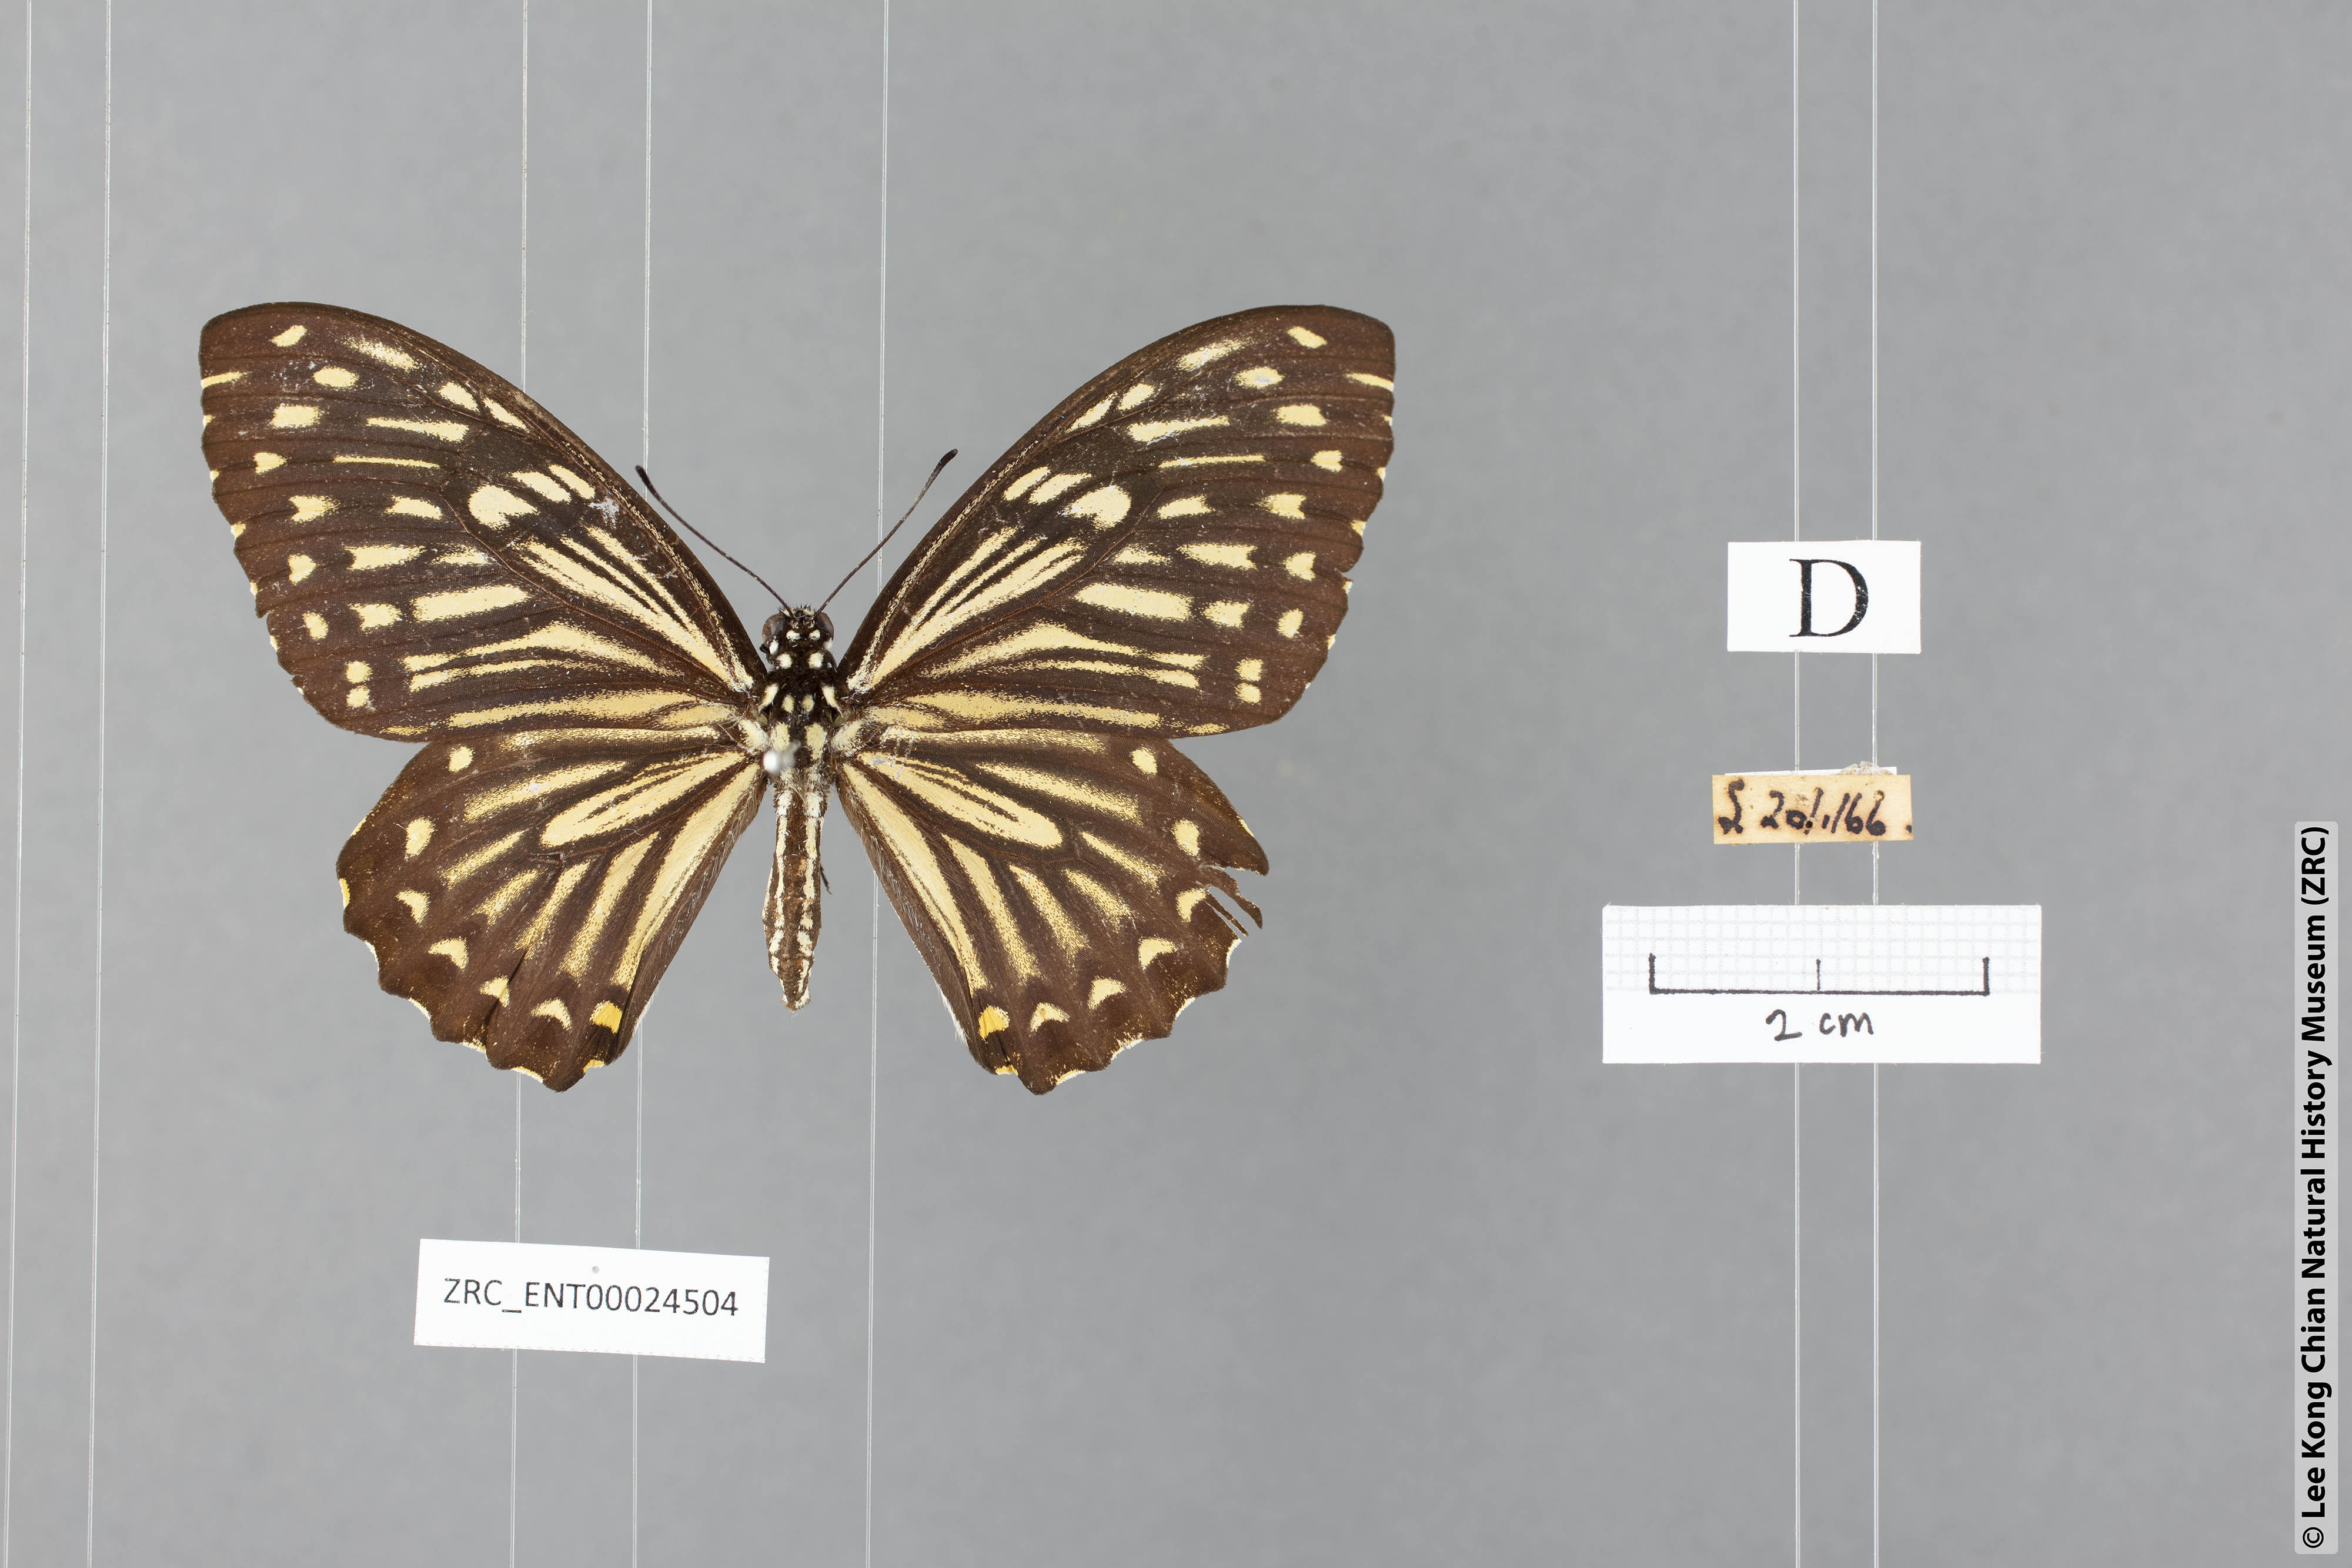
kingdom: Animalia
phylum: Arthropoda
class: Insecta
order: Lepidoptera
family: Papilionidae
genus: Chilasa
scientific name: Chilasa clytia
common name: Common mime
